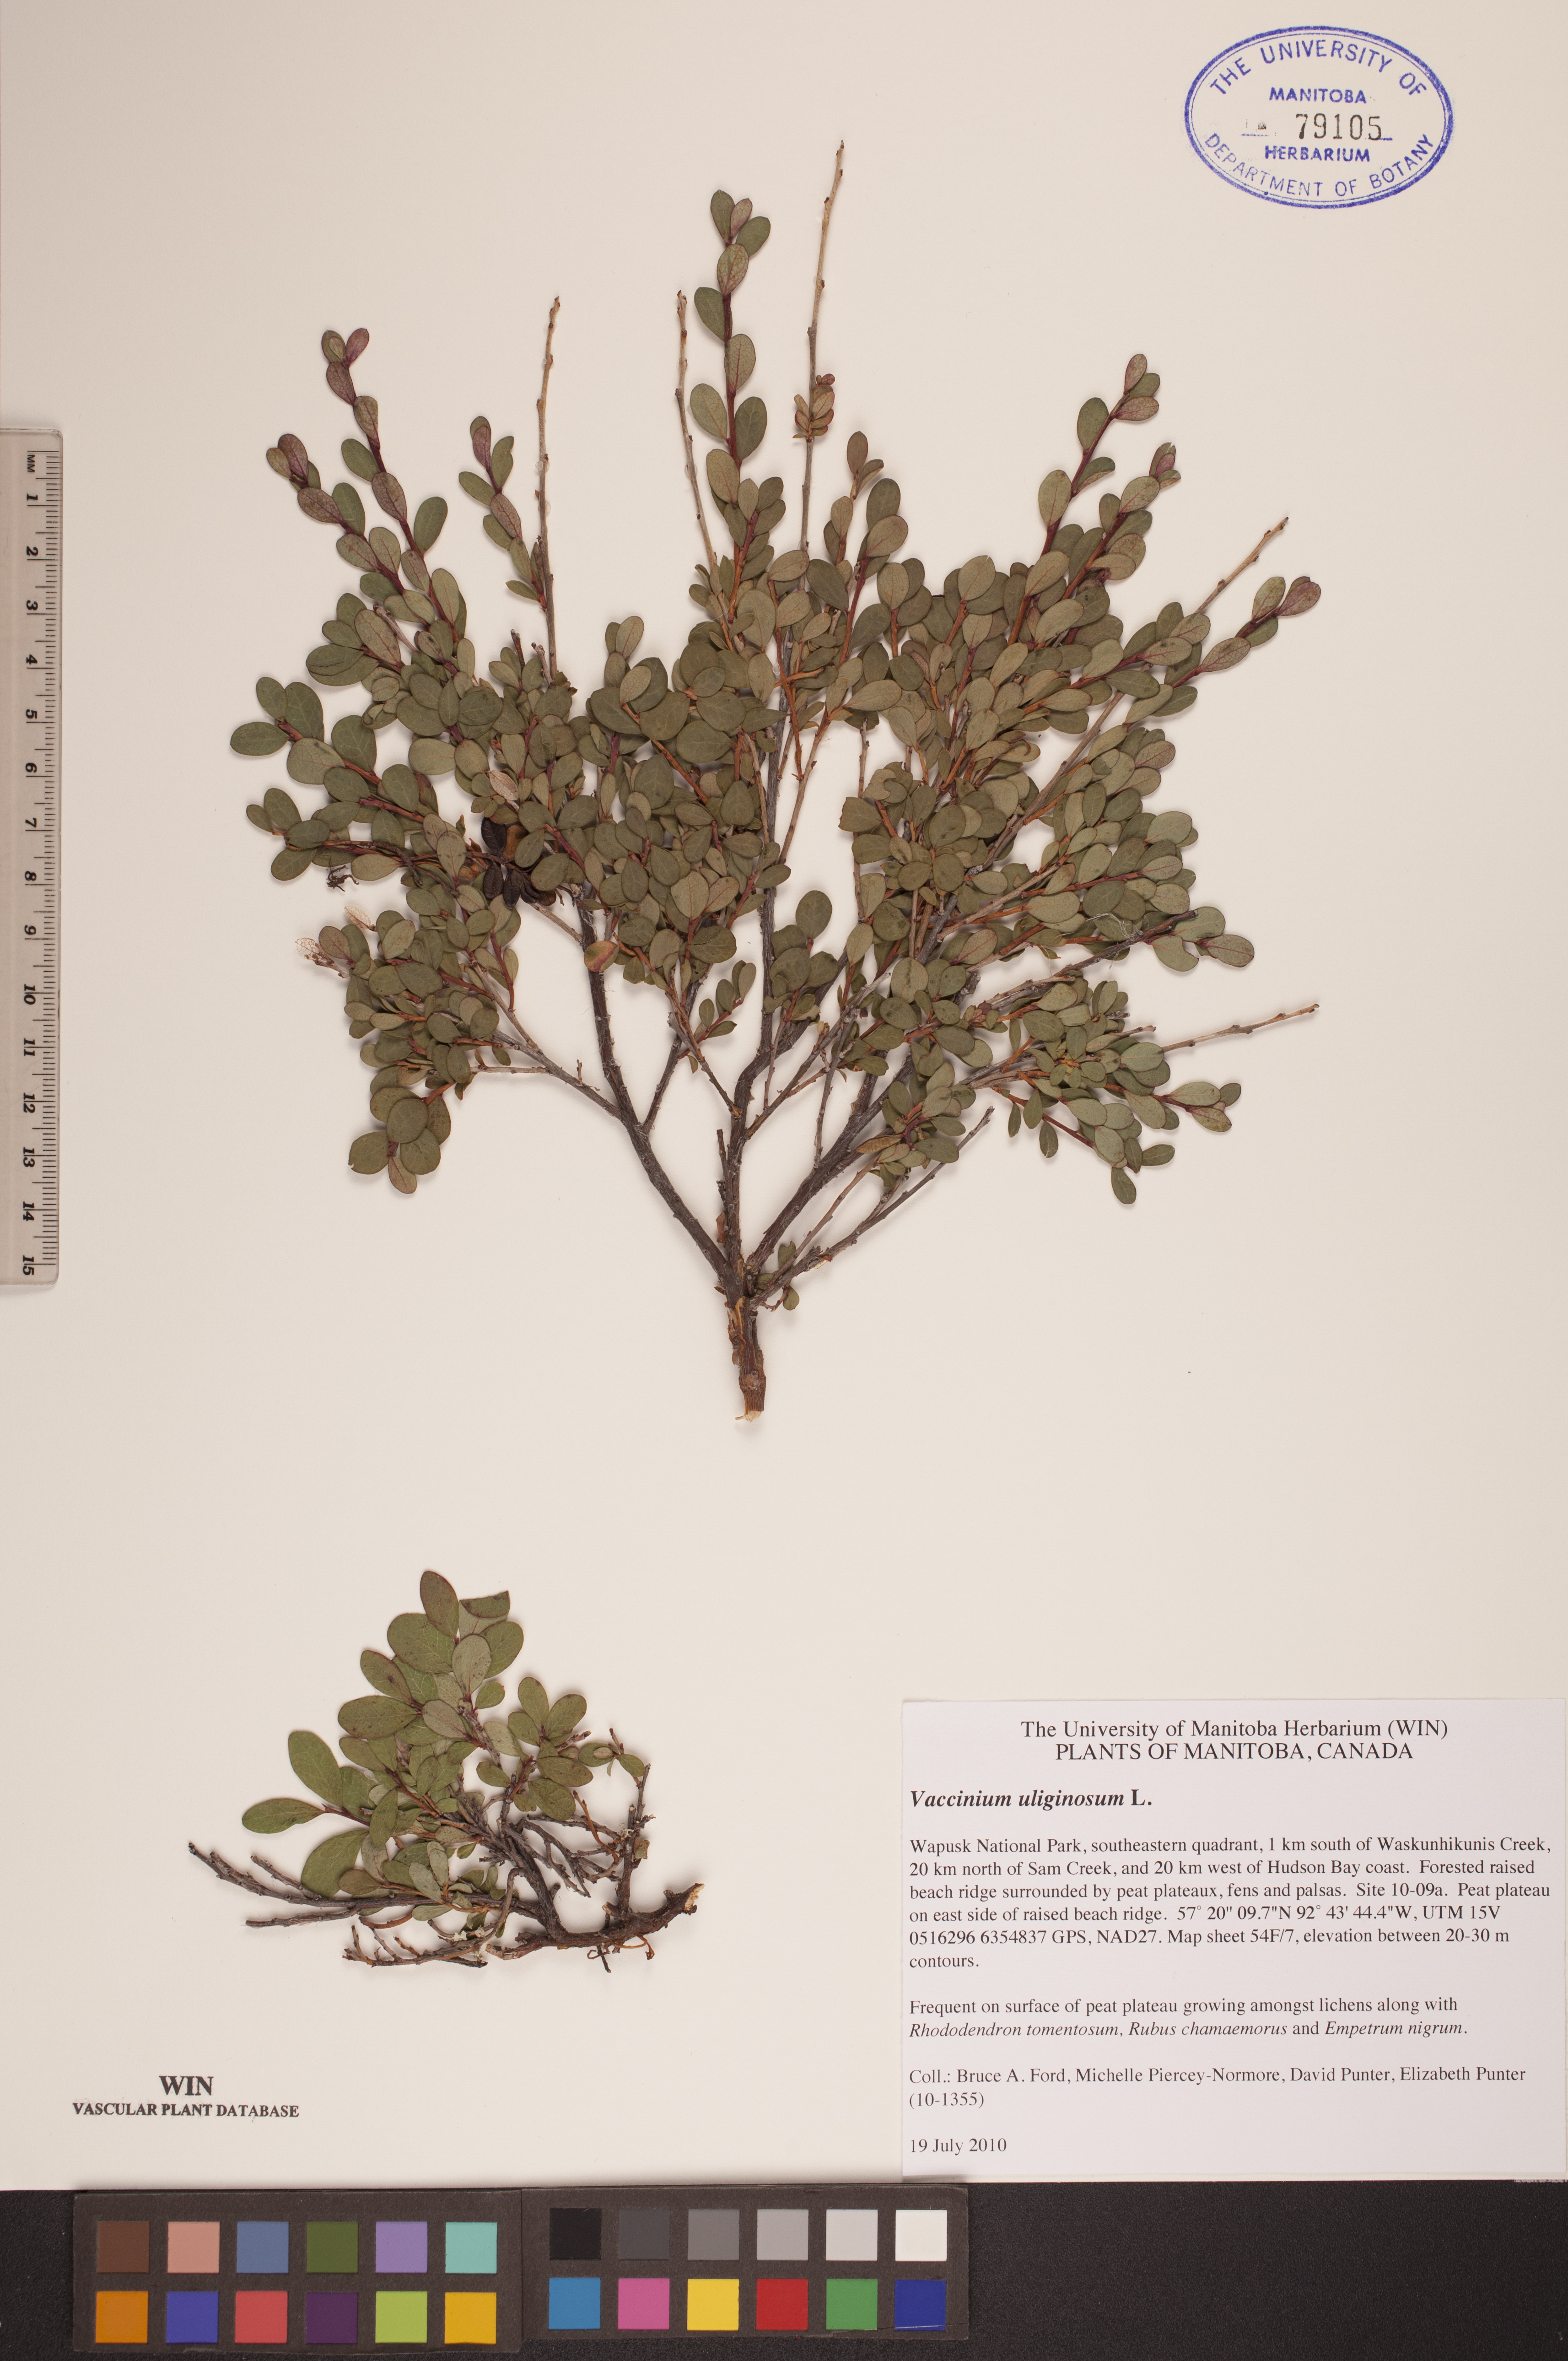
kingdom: Plantae
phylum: Tracheophyta
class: Magnoliopsida
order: Ericales
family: Ericaceae
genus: Vaccinium
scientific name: Vaccinium uliginosum
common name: Bog bilberry
